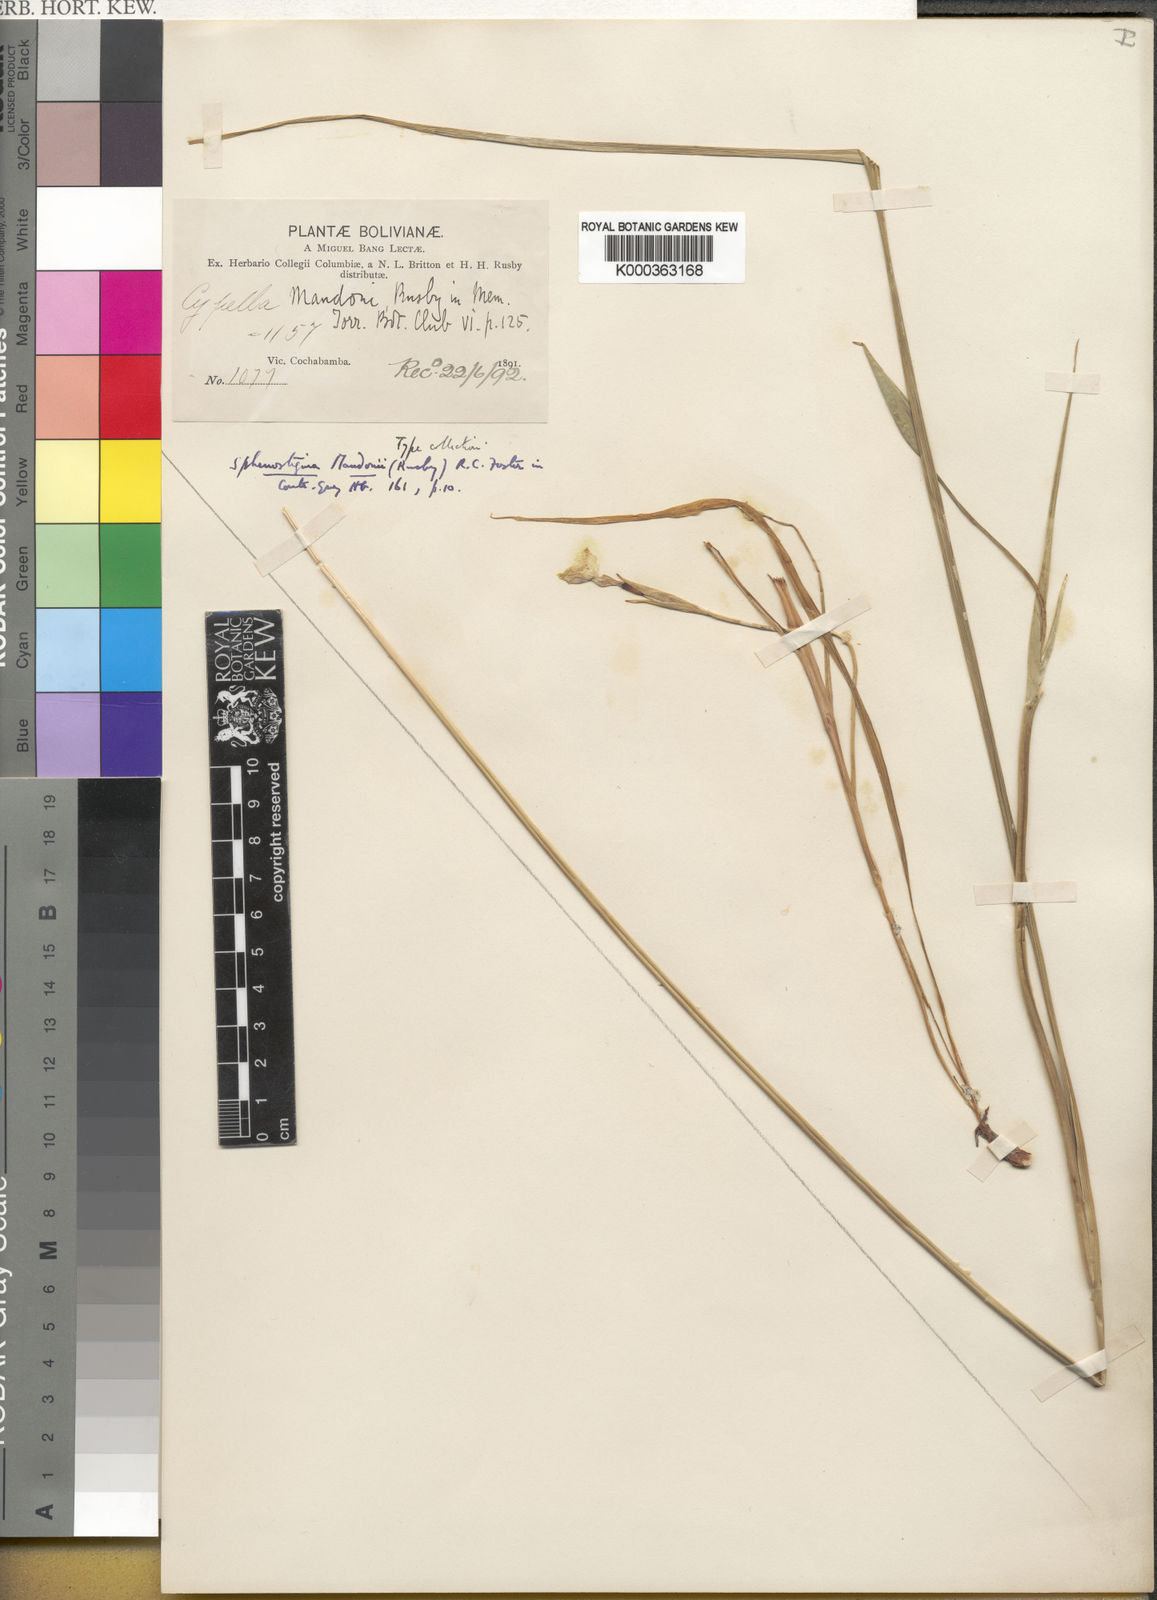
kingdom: Plantae
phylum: Tracheophyta
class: Liliopsida
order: Asparagales
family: Iridaceae
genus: Cypella
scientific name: Cypella mandonii
